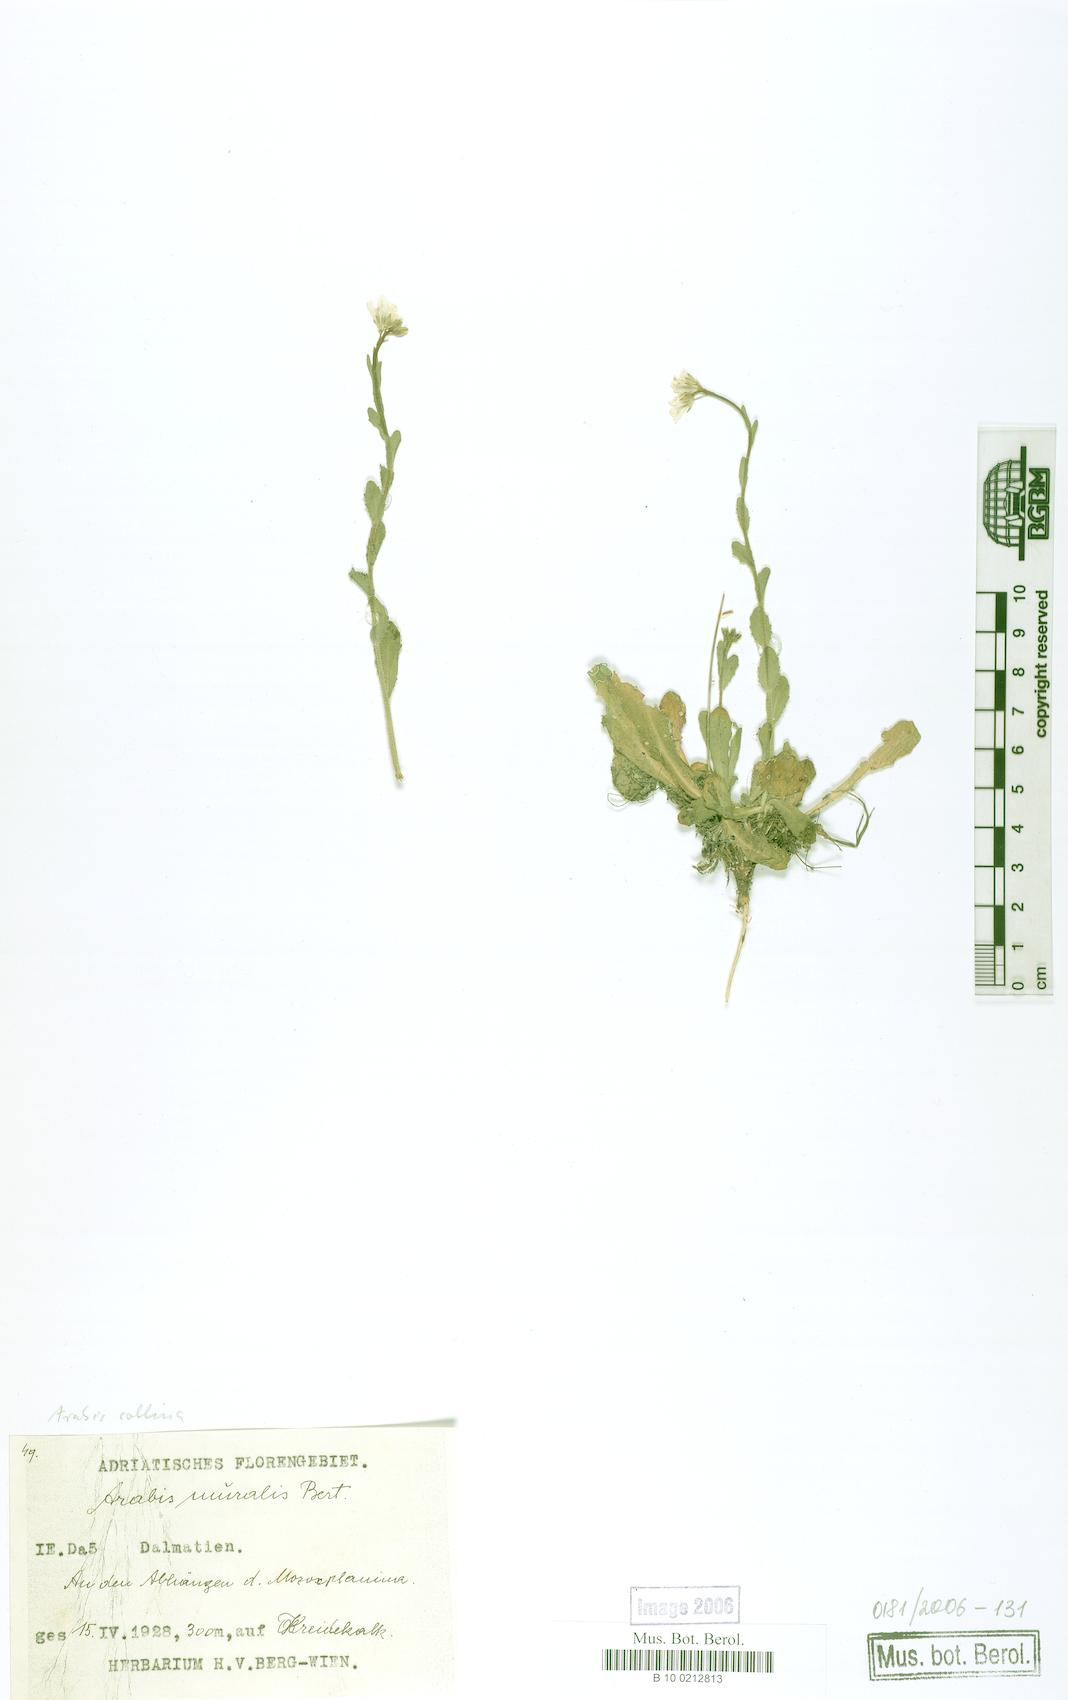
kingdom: Plantae
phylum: Tracheophyta
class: Magnoliopsida
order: Brassicales
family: Brassicaceae
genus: Arabis
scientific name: Arabis collina
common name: Rosy cress
